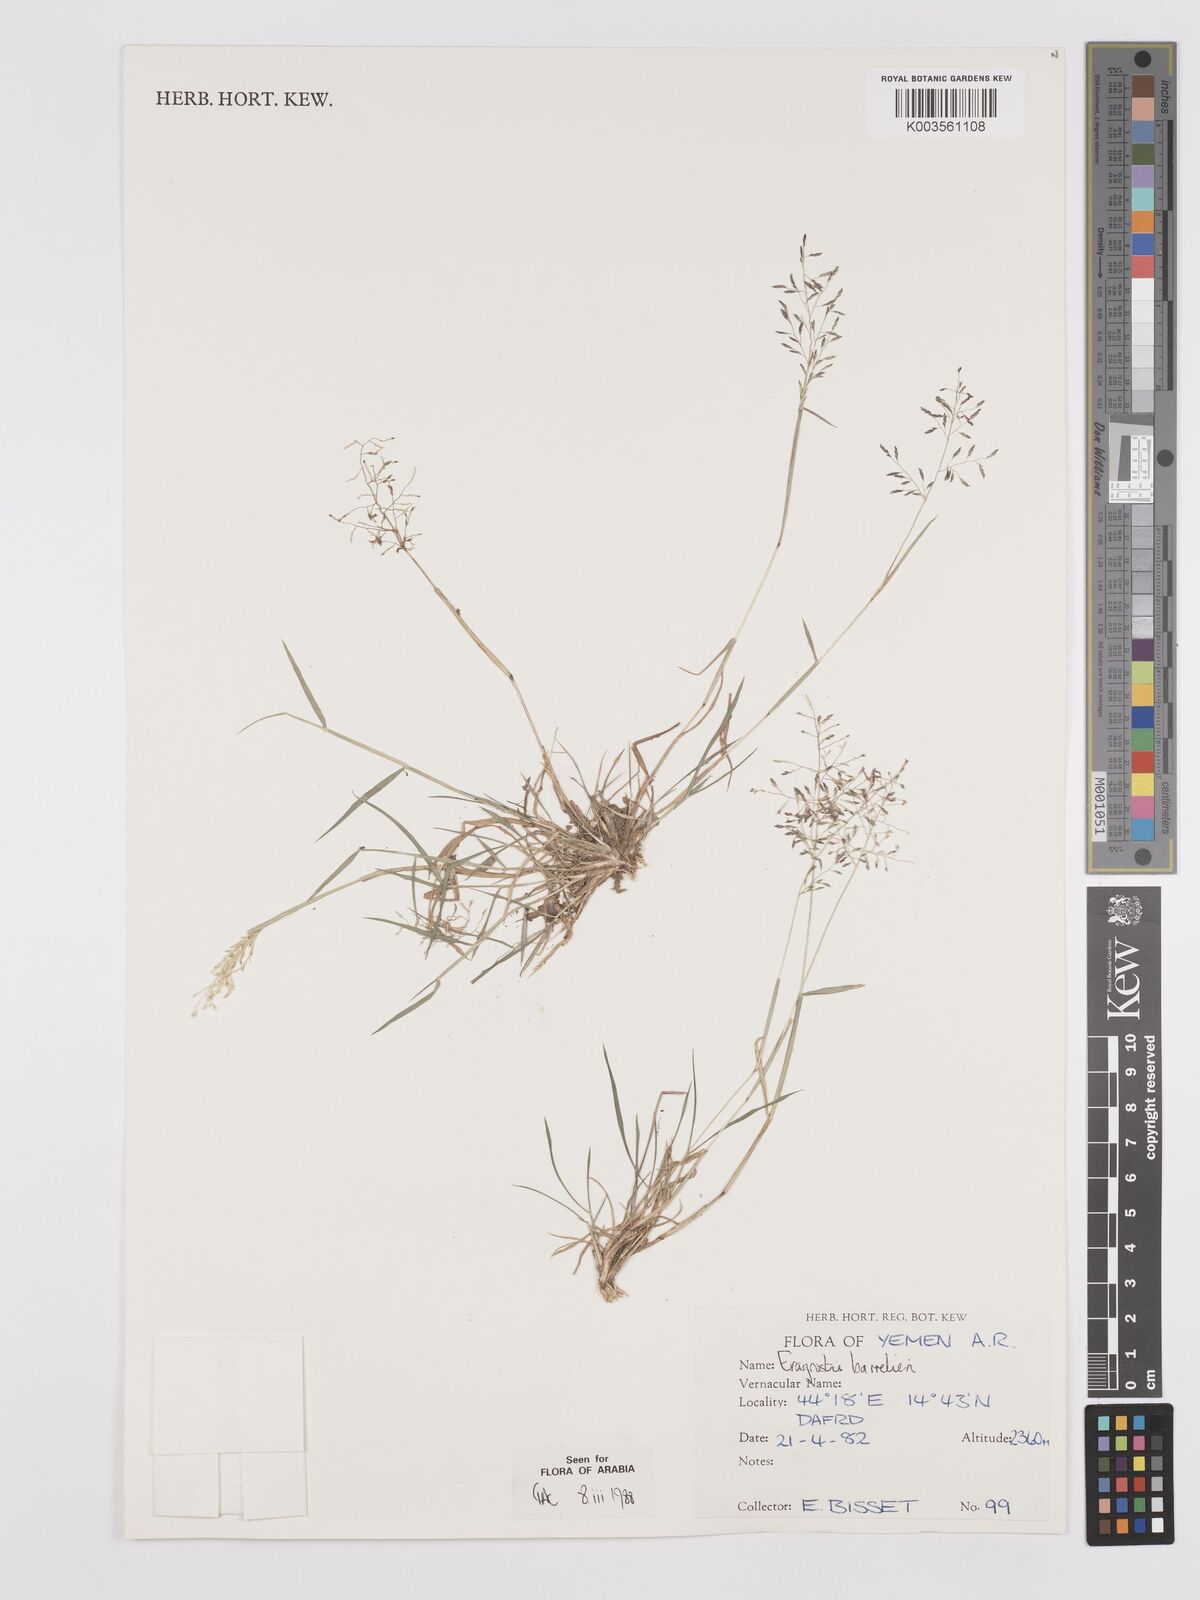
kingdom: Plantae
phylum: Tracheophyta
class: Liliopsida
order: Poales
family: Poaceae
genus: Eragrostis
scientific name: Eragrostis barrelieri
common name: Mediterranean lovegrass
